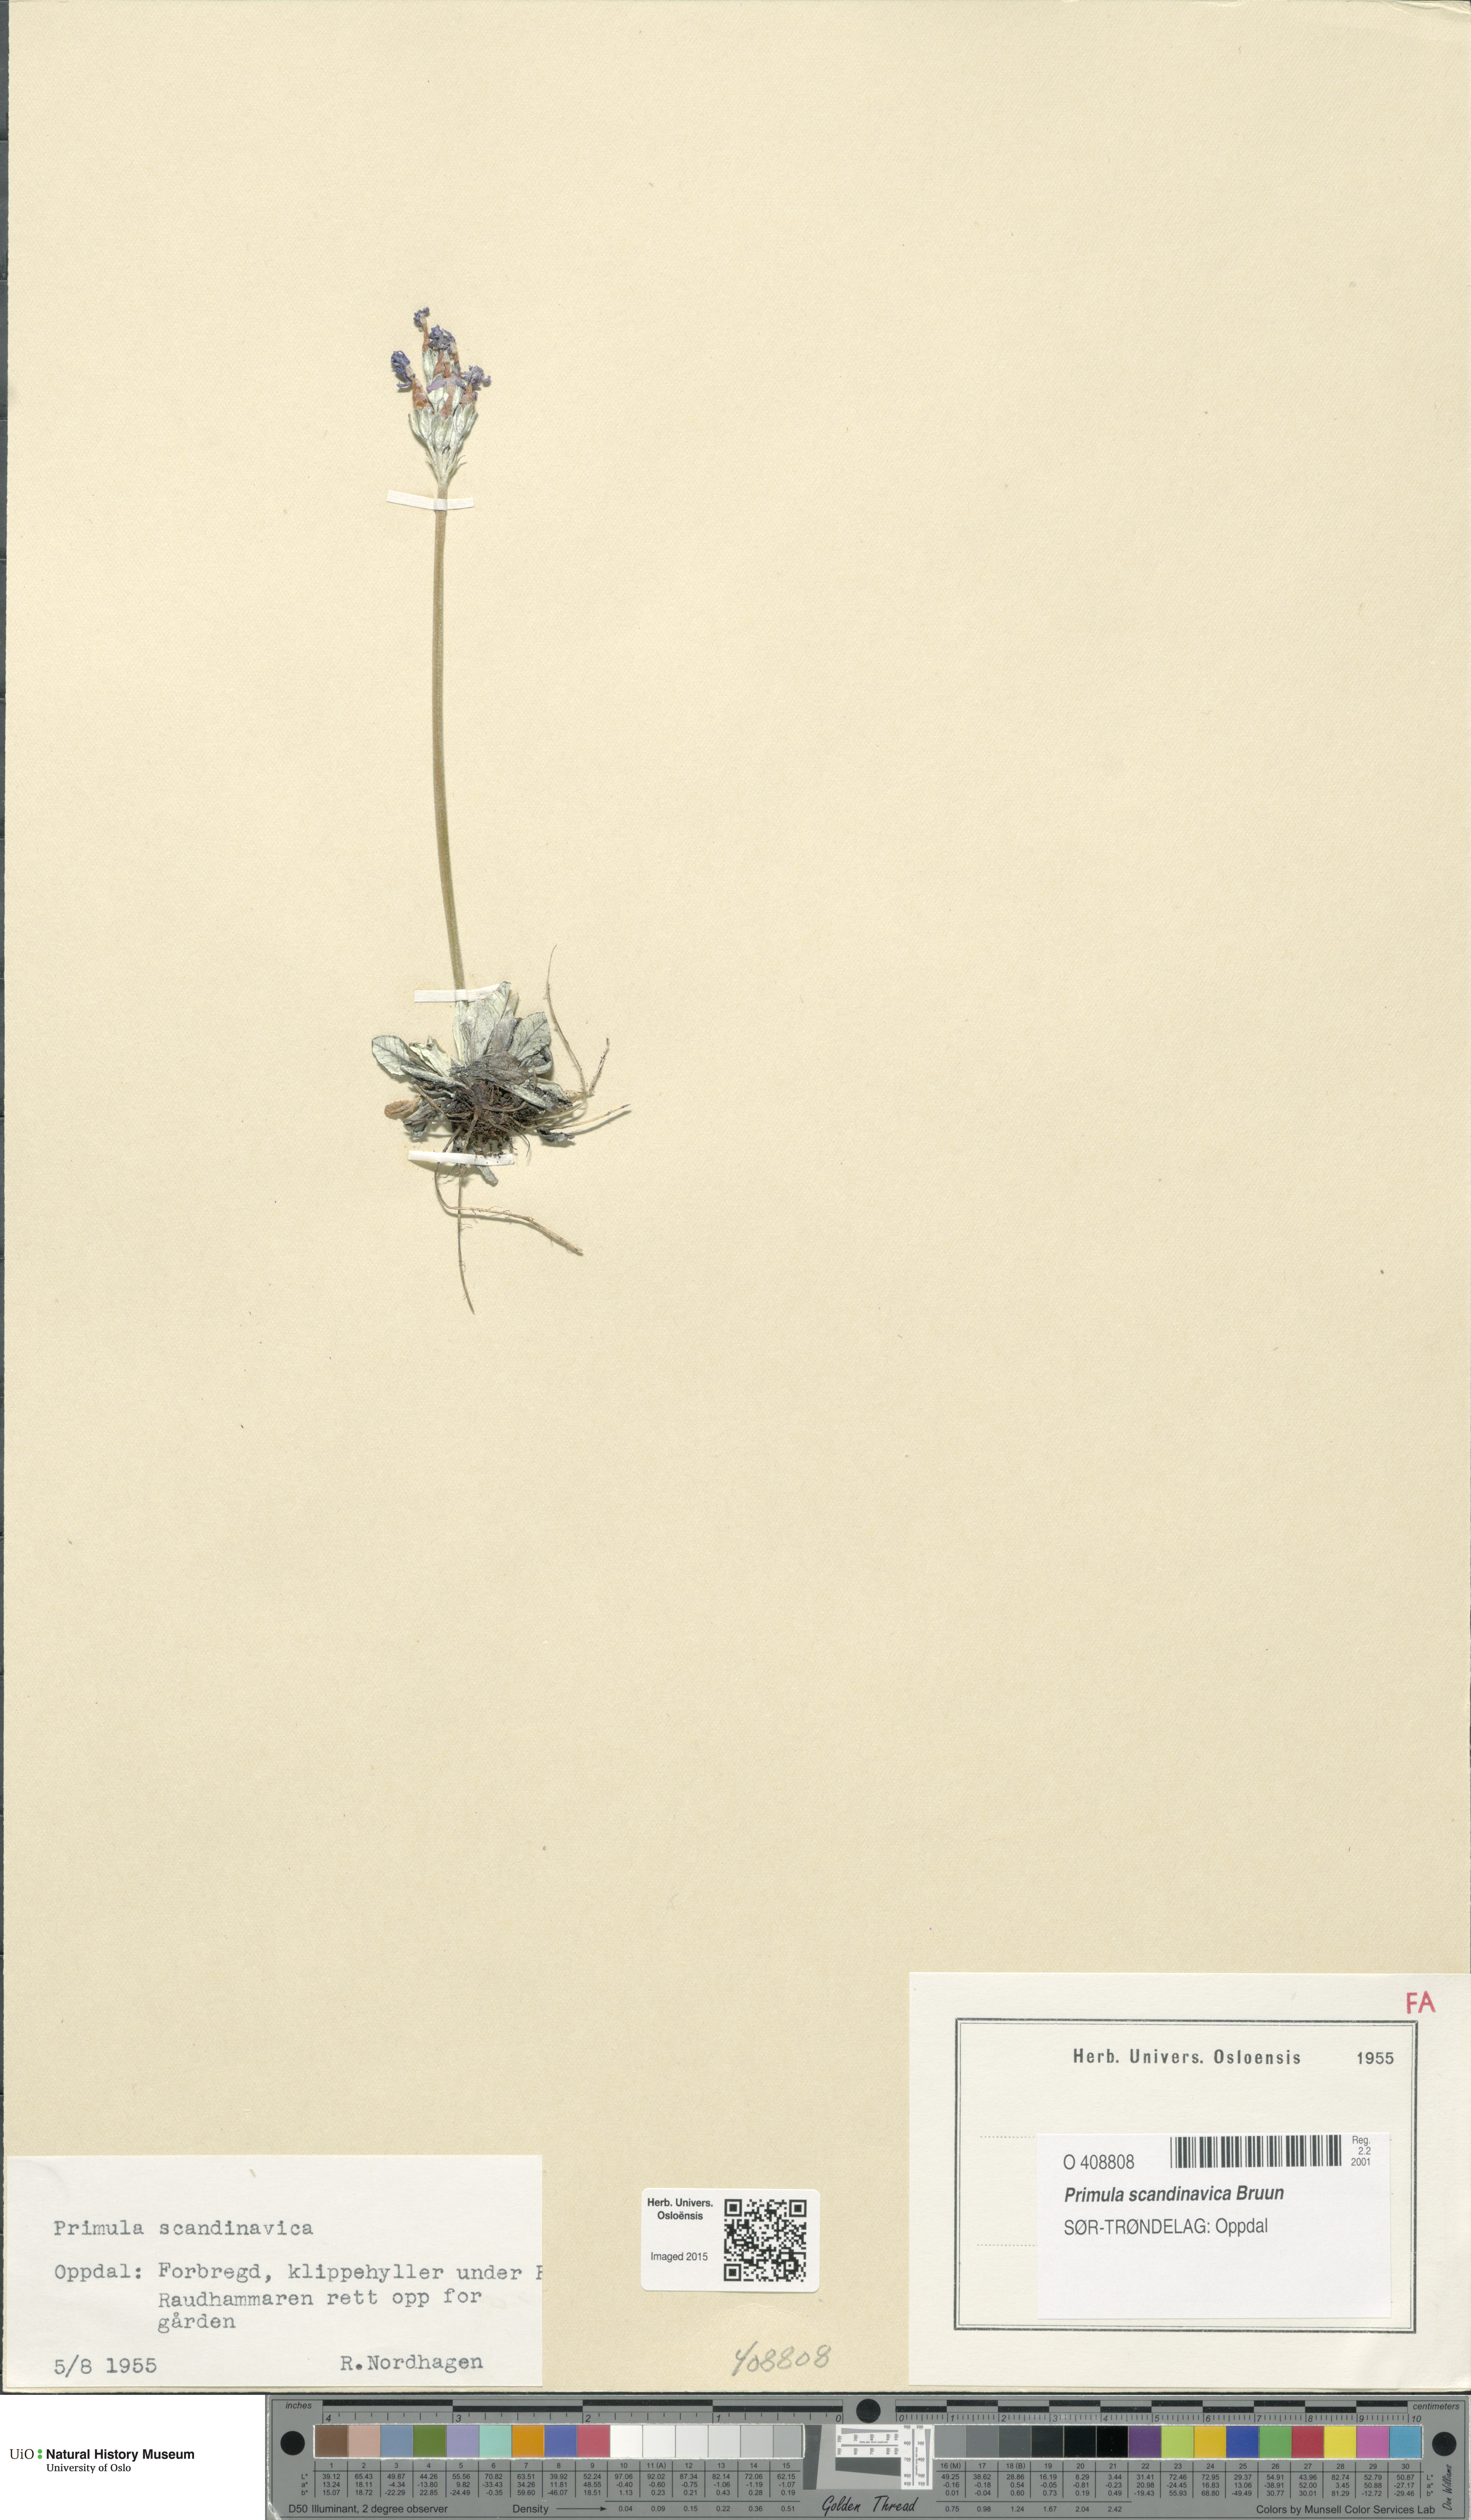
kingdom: Plantae
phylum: Tracheophyta
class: Magnoliopsida
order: Ericales
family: Primulaceae
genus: Primula
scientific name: Primula scandinavica
